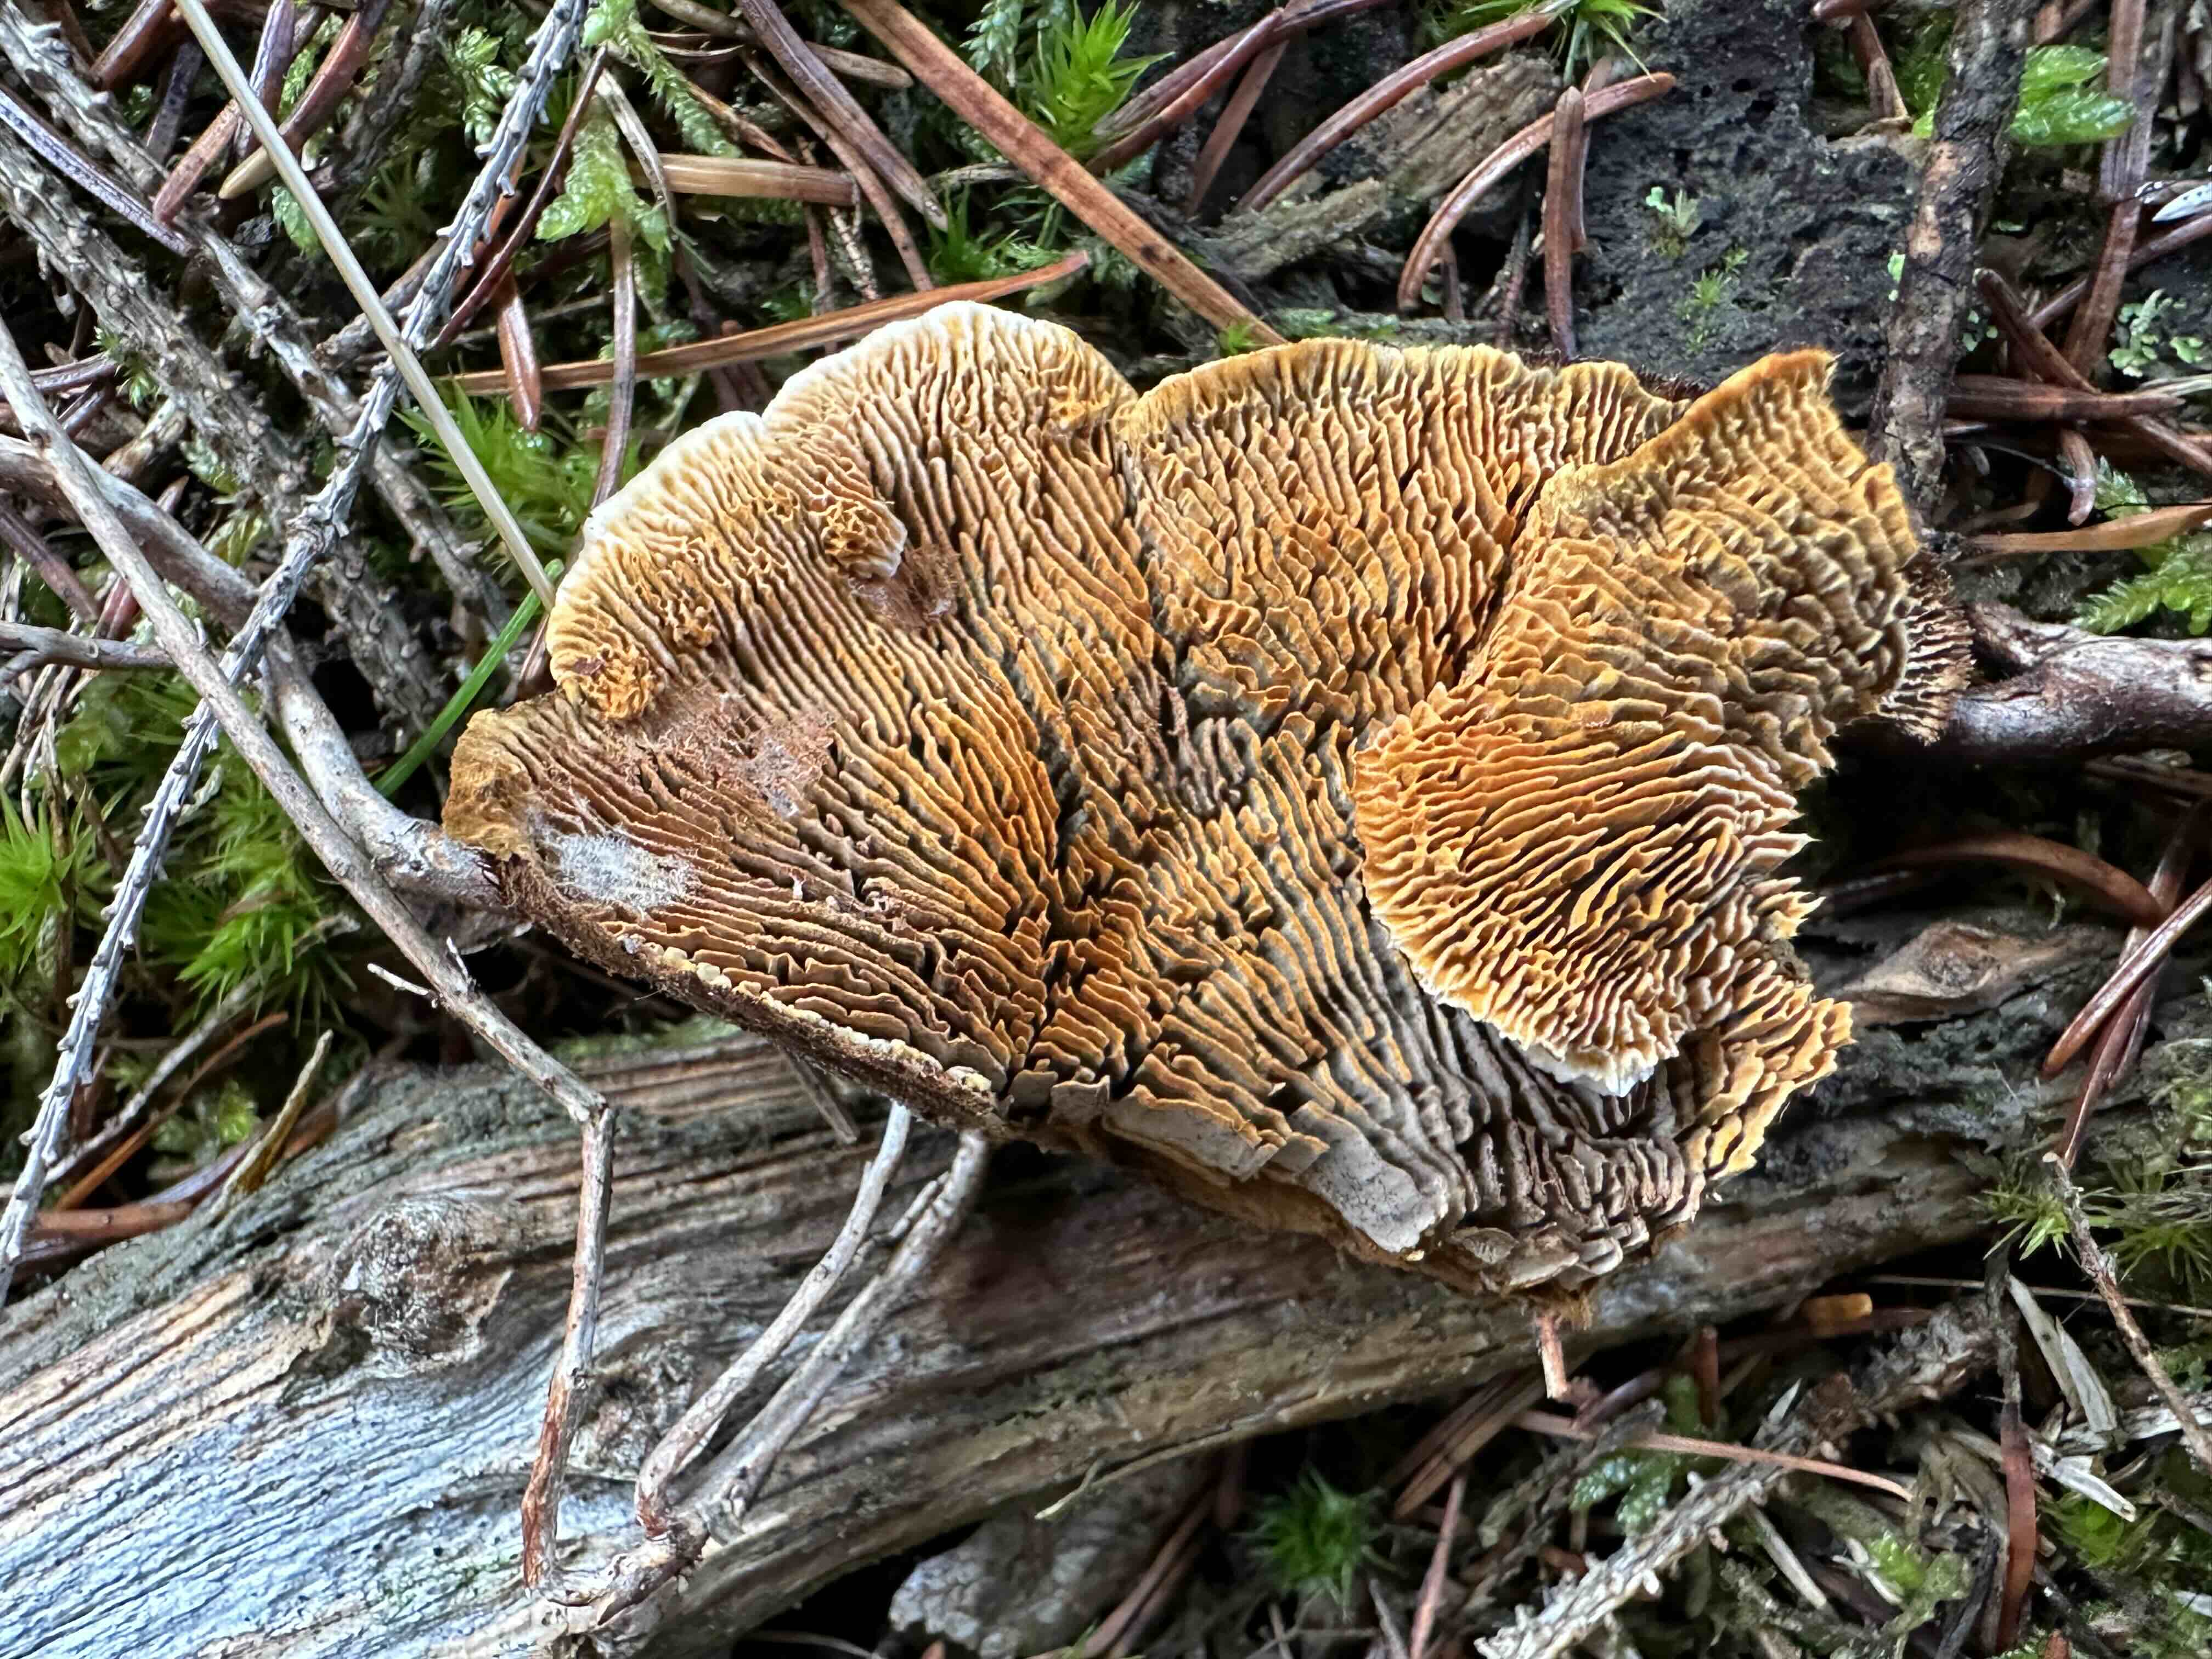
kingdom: Fungi
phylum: Basidiomycota
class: Agaricomycetes
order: Gloeophyllales
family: Gloeophyllaceae
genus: Gloeophyllum
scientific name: Gloeophyllum sepiarium
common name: fyrre-korkhat
